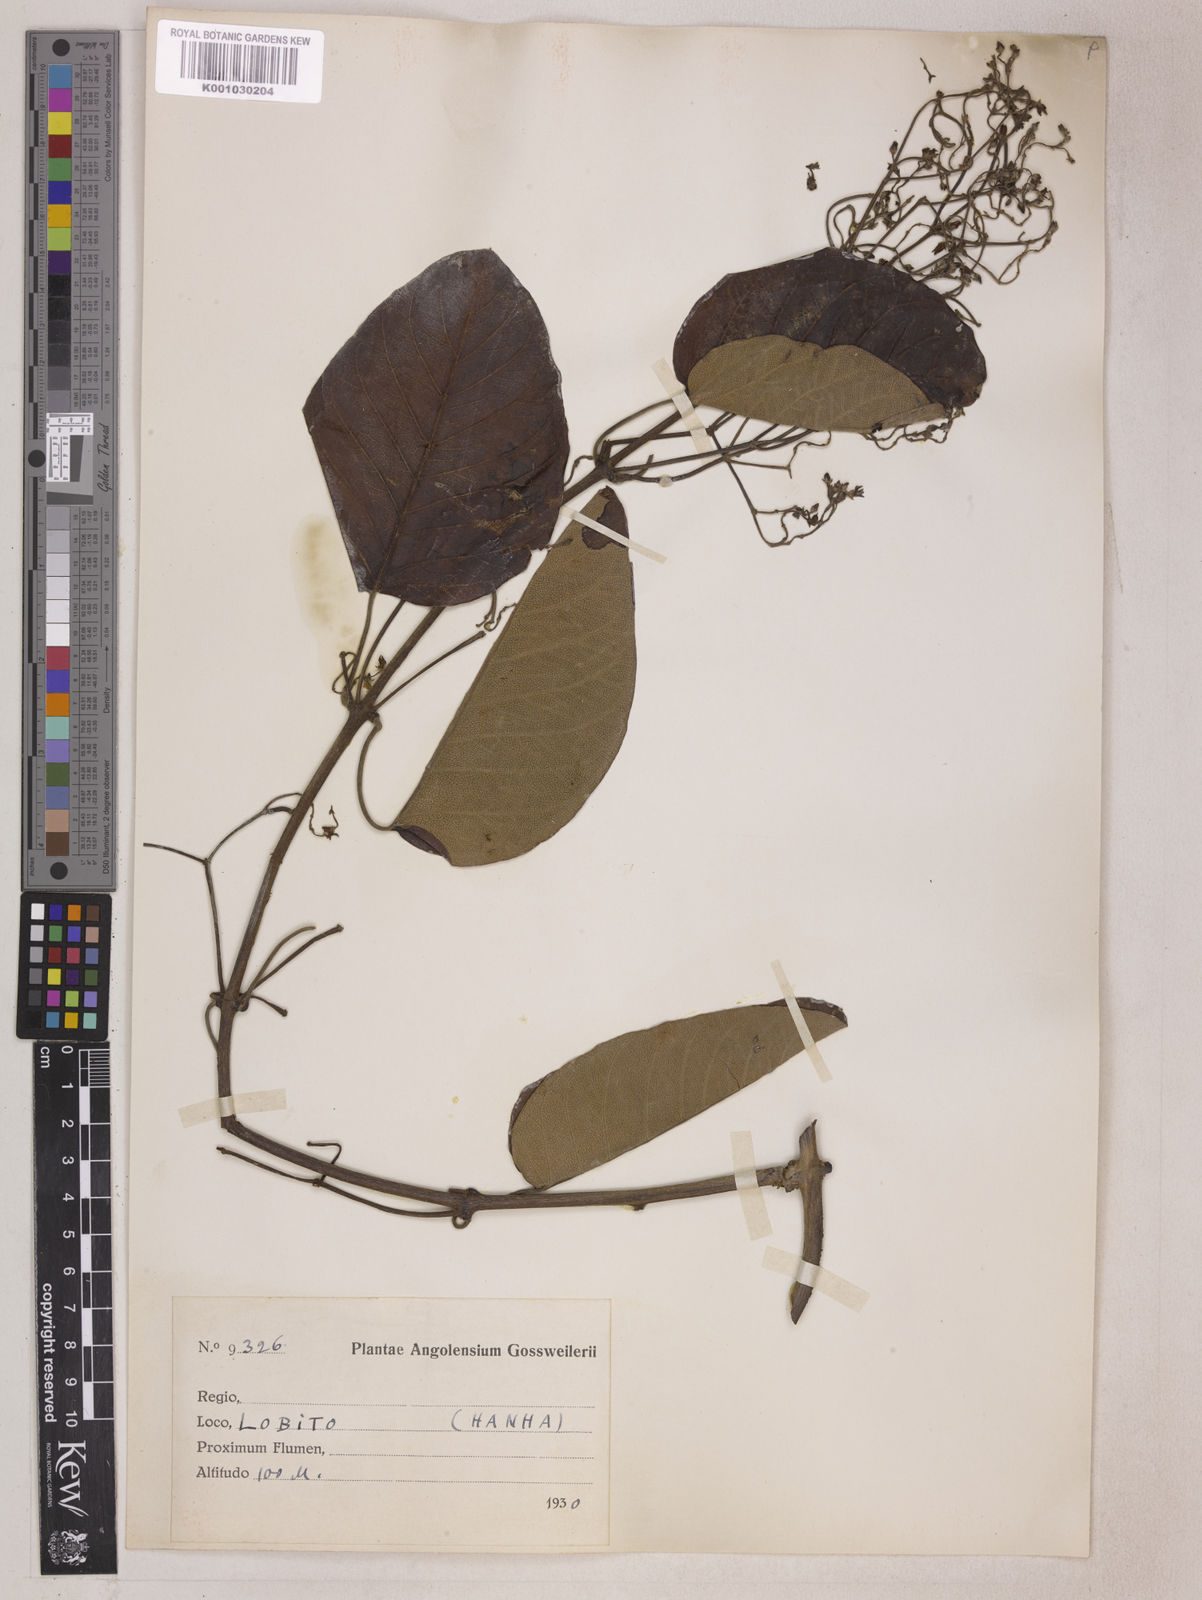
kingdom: Plantae
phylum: Tracheophyta
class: Magnoliopsida
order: Gentianales
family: Apocynaceae
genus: Tacazzea
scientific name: Tacazzea apiculata
